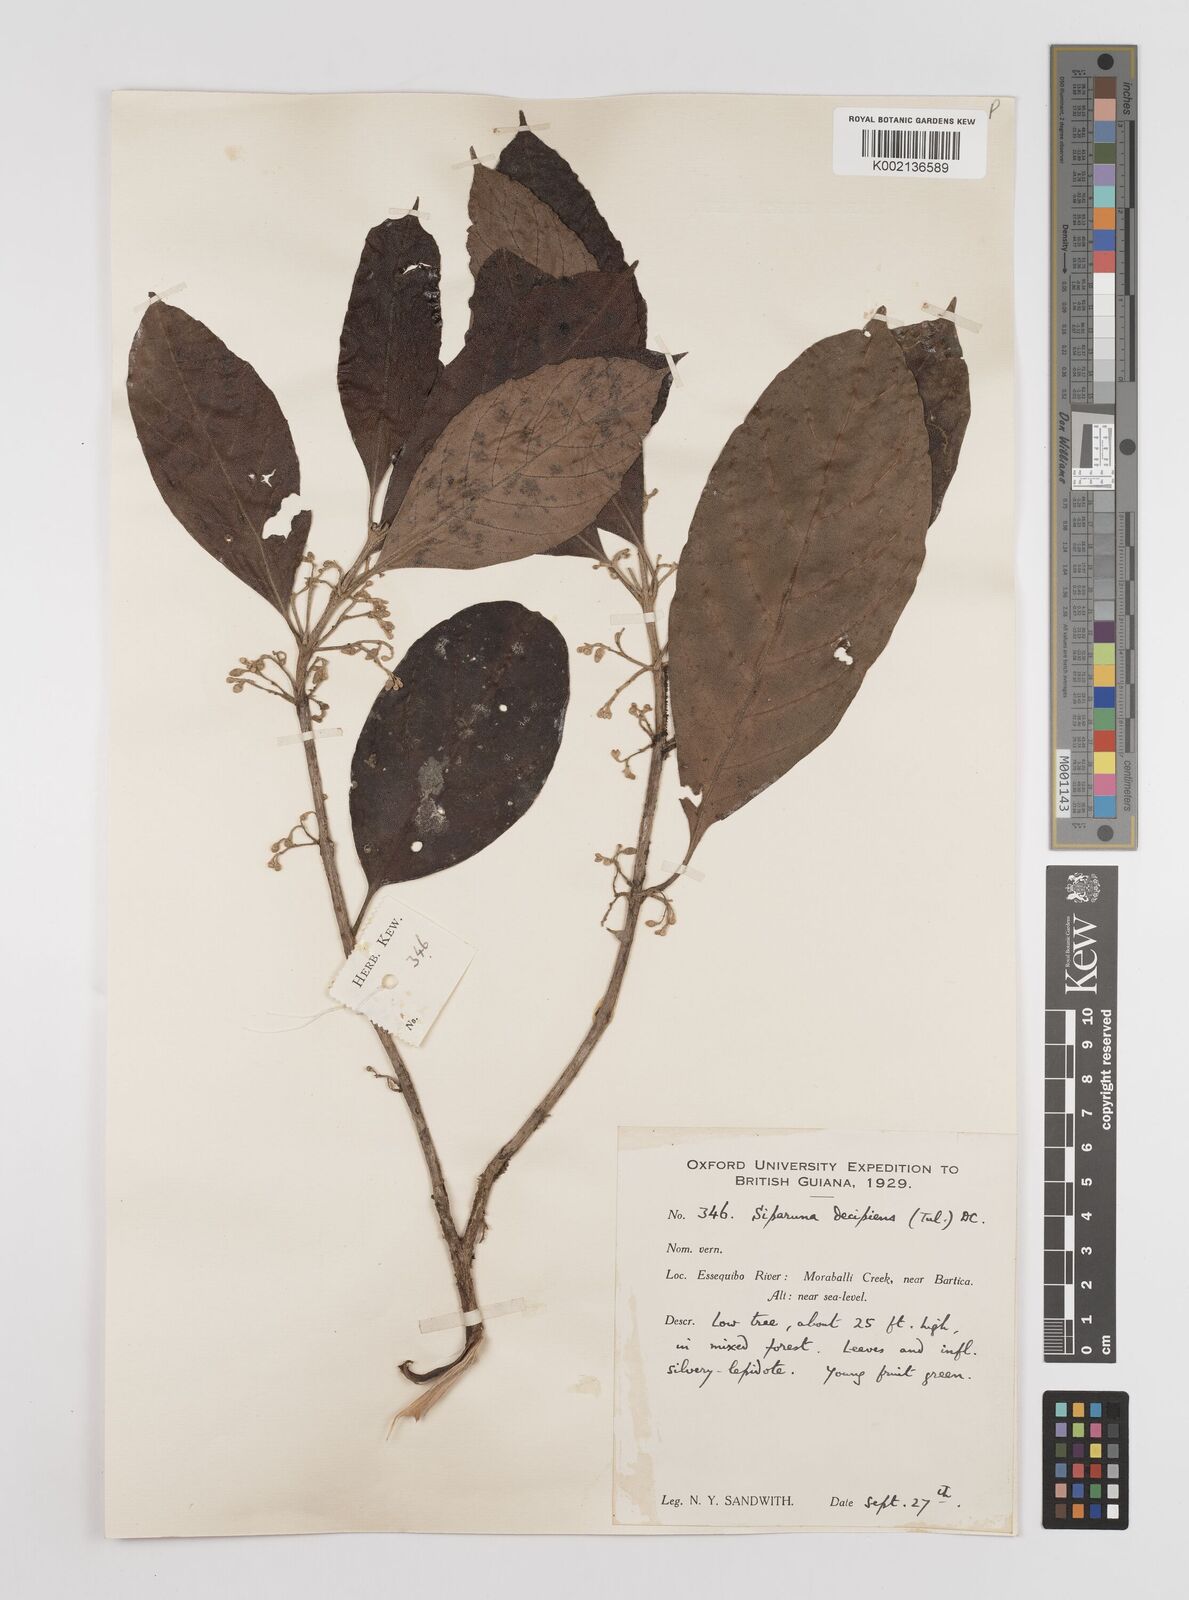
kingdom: Plantae
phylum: Tracheophyta
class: Magnoliopsida
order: Laurales
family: Siparunaceae
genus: Siparuna
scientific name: Siparuna decipiens
